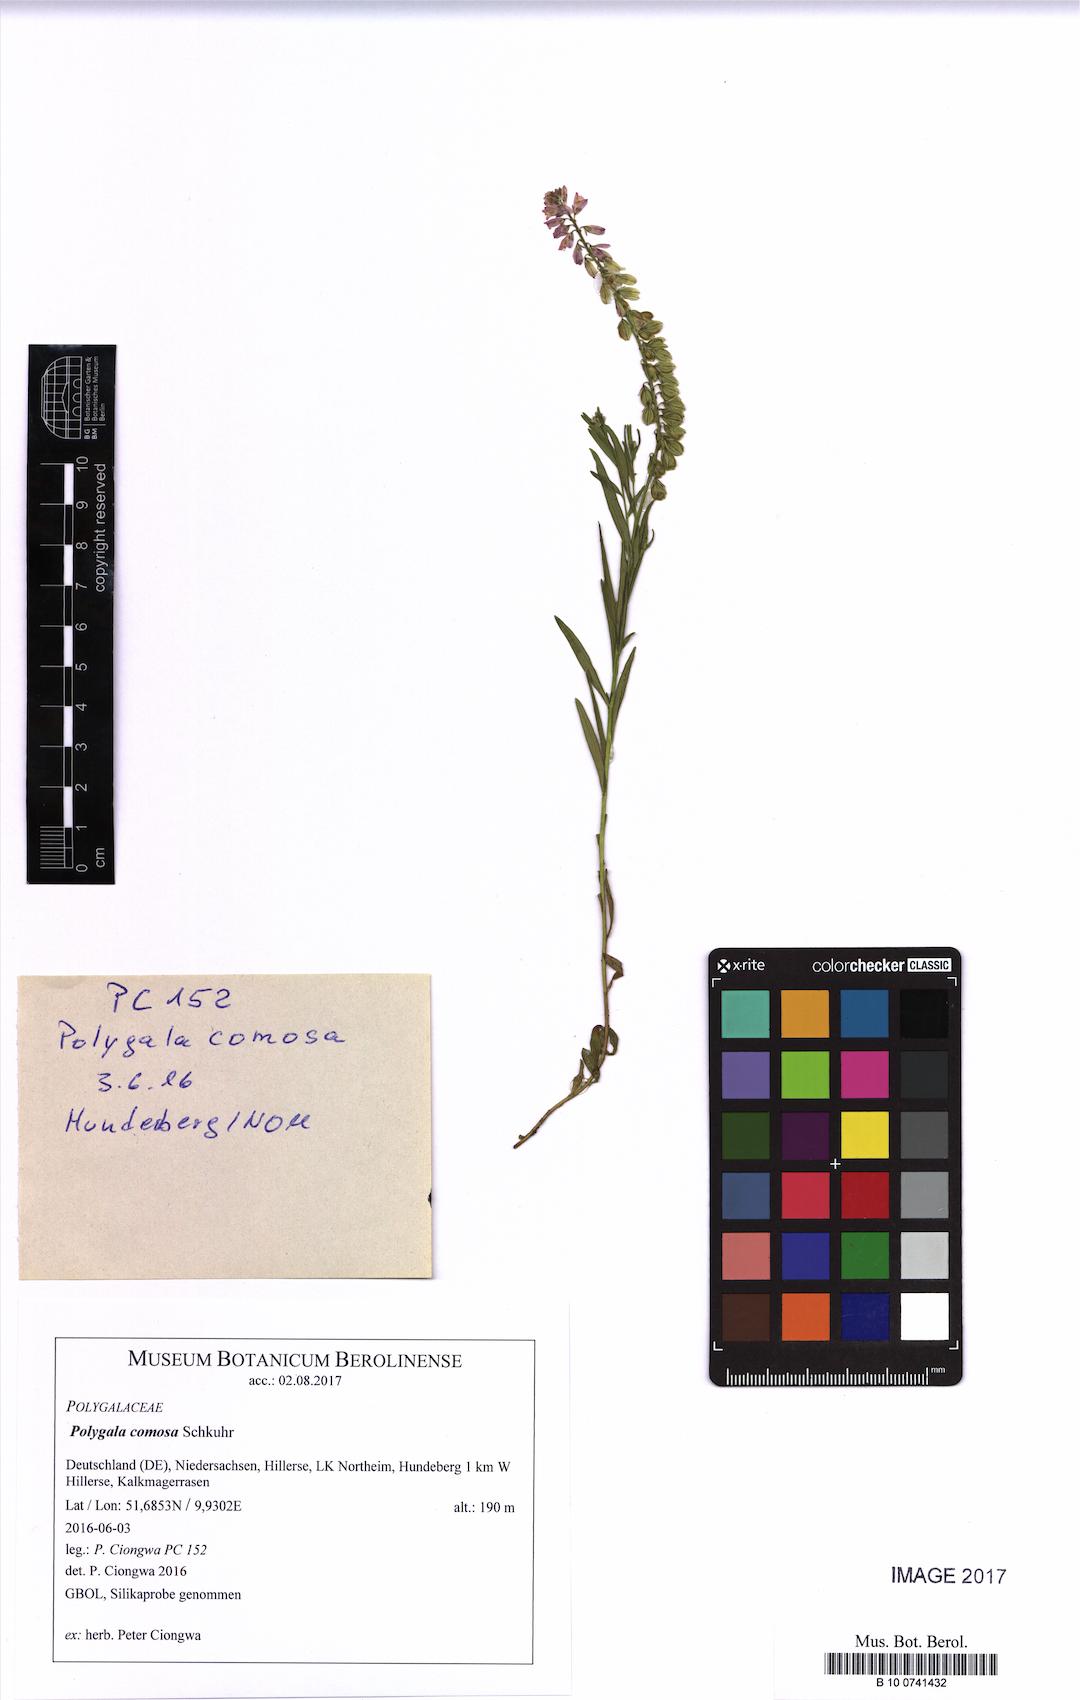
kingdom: Plantae
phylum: Tracheophyta
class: Magnoliopsida
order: Fabales
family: Polygalaceae
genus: Polygala
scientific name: Polygala comosa
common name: Tufted milkwort
